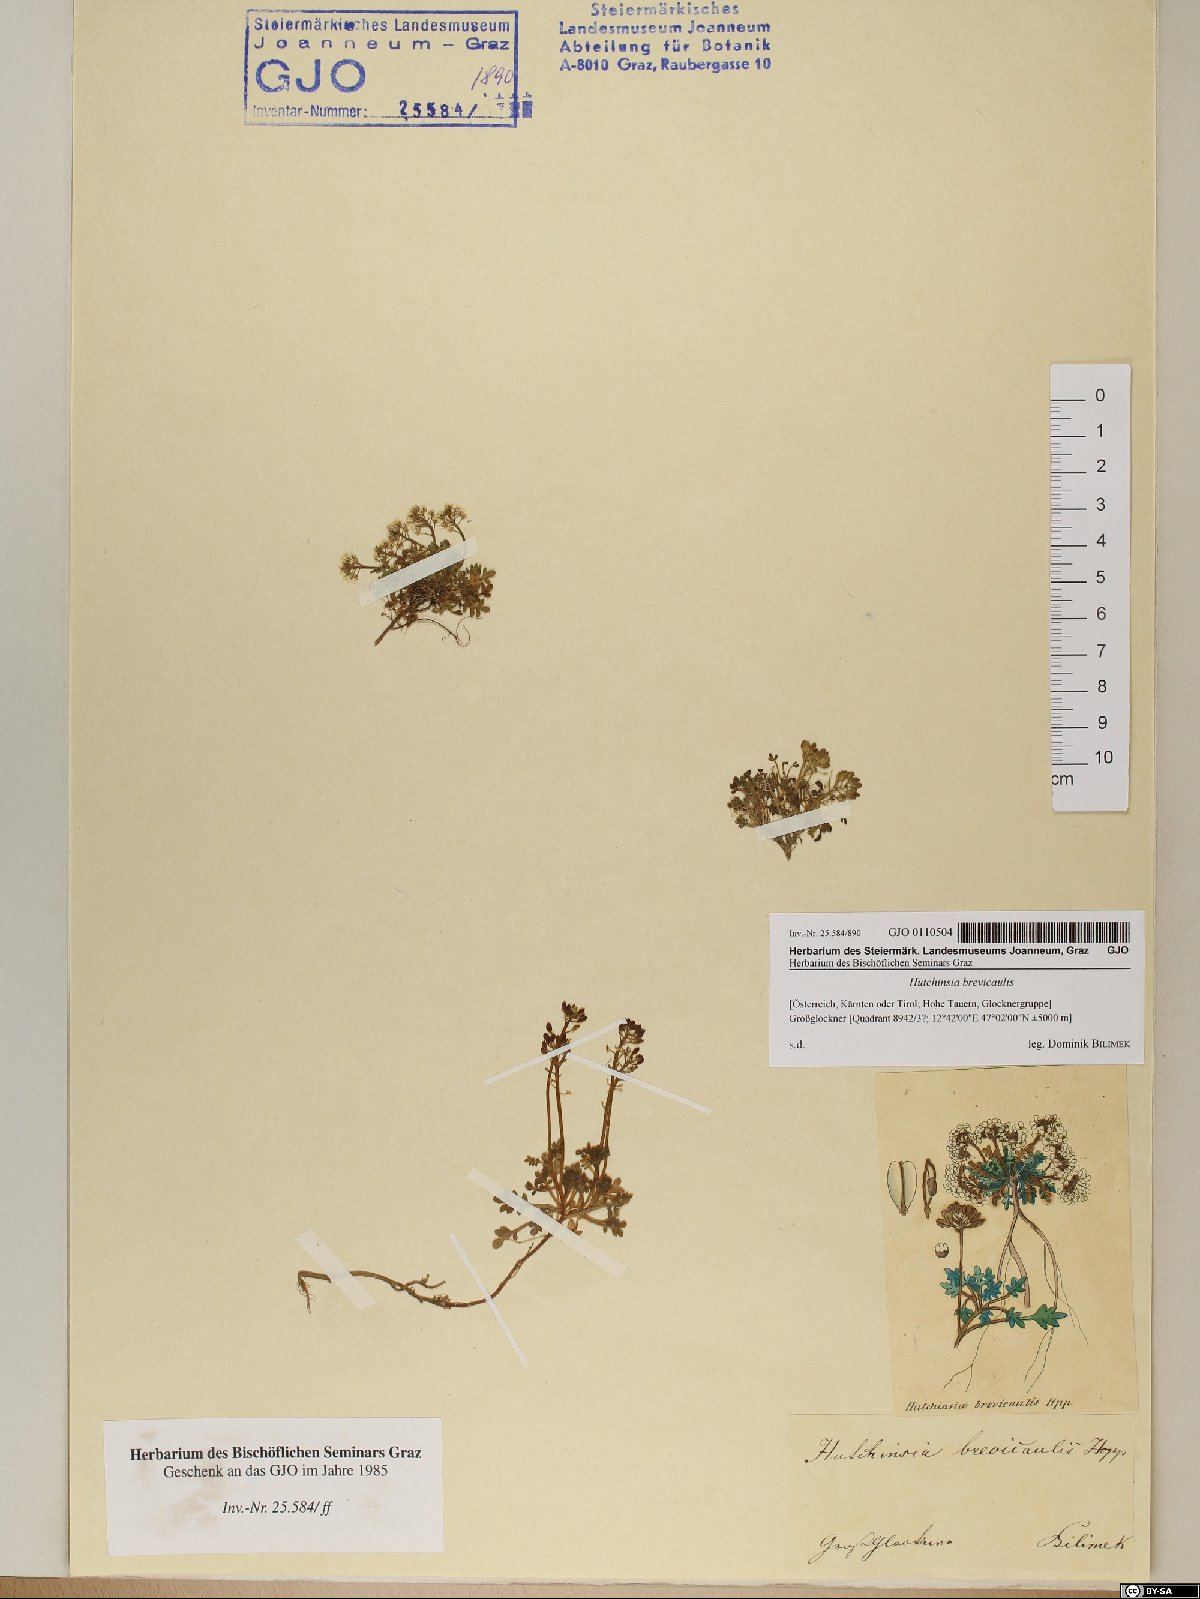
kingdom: Plantae
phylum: Tracheophyta
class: Magnoliopsida
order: Brassicales
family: Brassicaceae
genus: Hornungia
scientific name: Hornungia alpina
